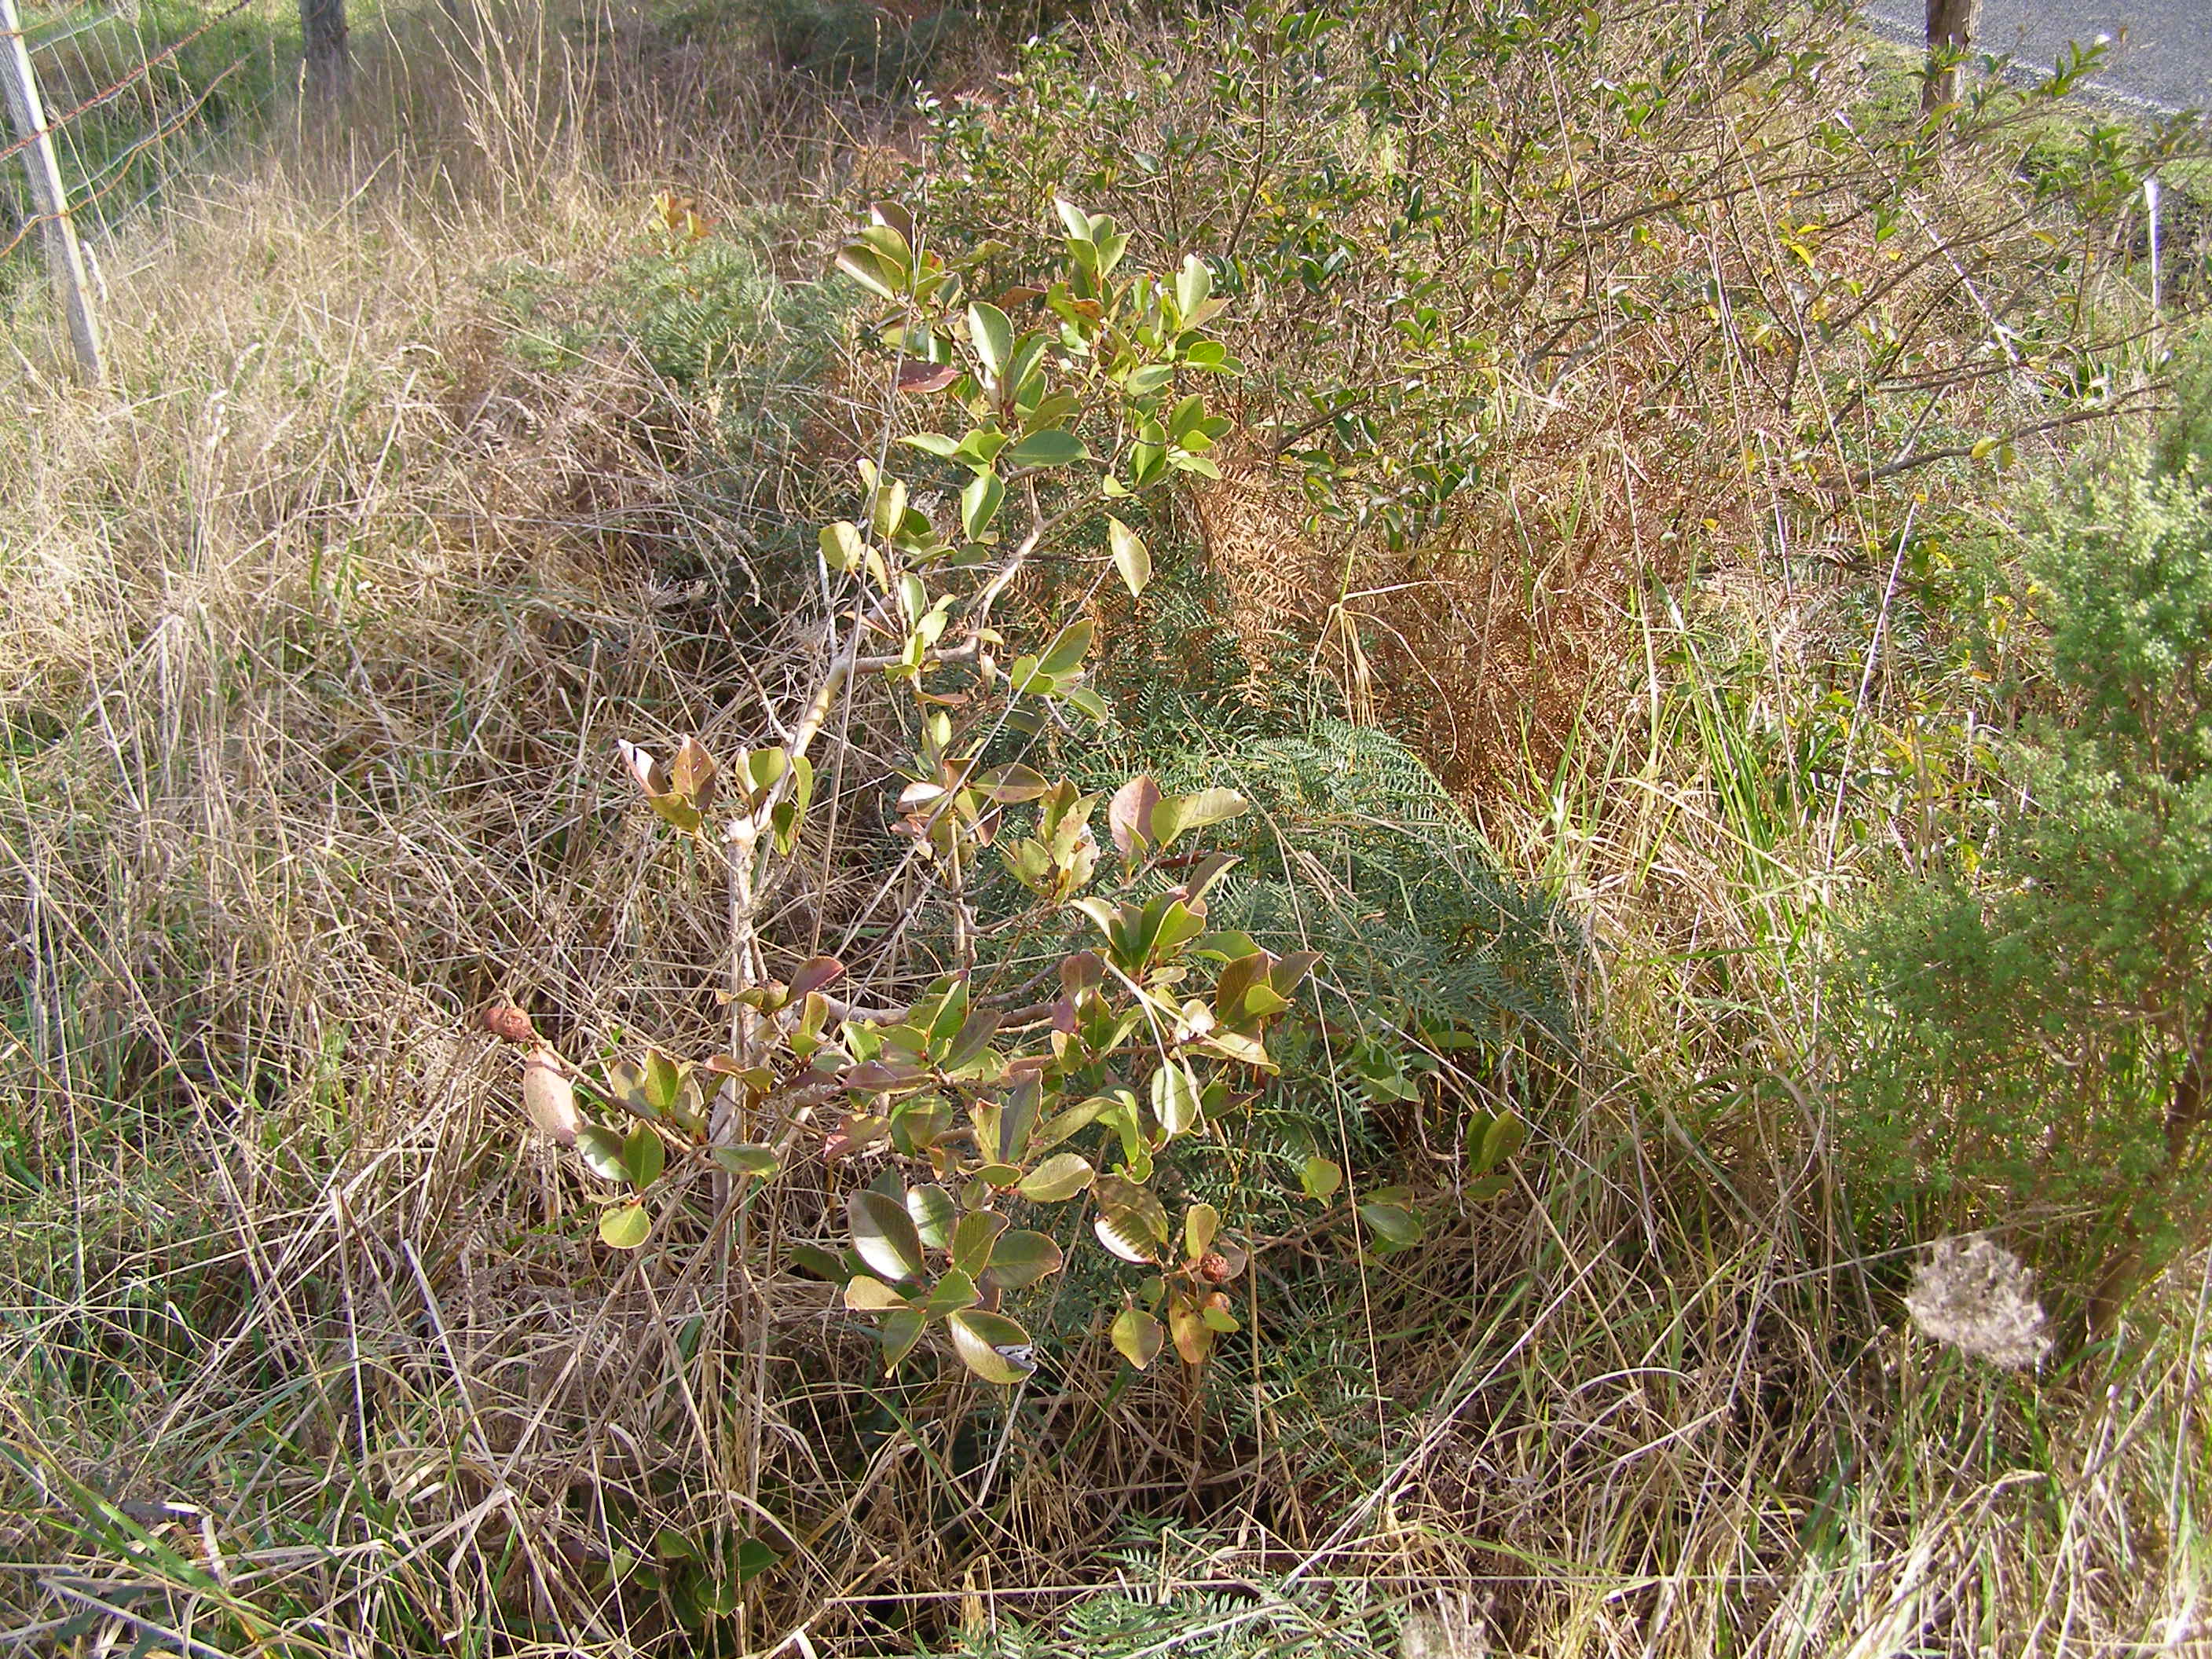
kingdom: Plantae
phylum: Tracheophyta
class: Magnoliopsida
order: Myrtales
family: Myrtaceae
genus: Psidium
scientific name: Psidium cattleianum
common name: Strawberry guava
